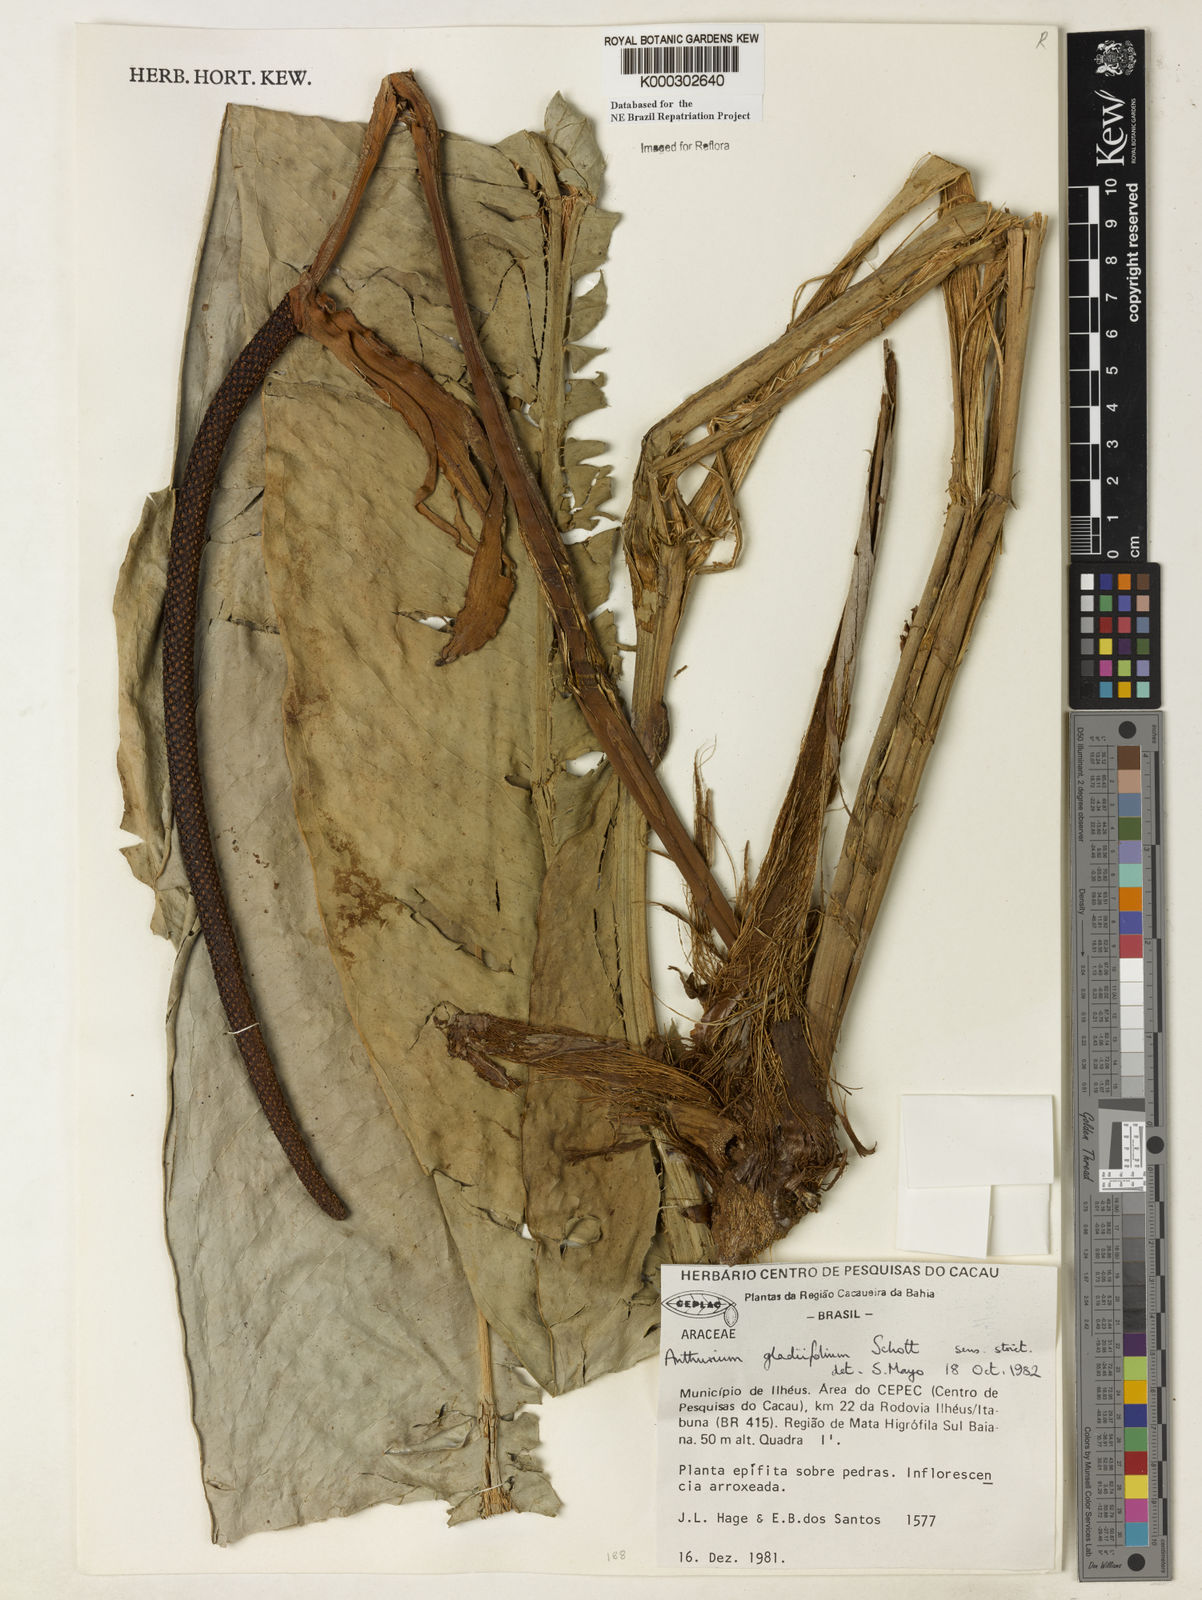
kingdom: Plantae
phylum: Tracheophyta
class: Liliopsida
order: Alismatales
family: Araceae
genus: Anthurium
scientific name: Anthurium gladiifolium
